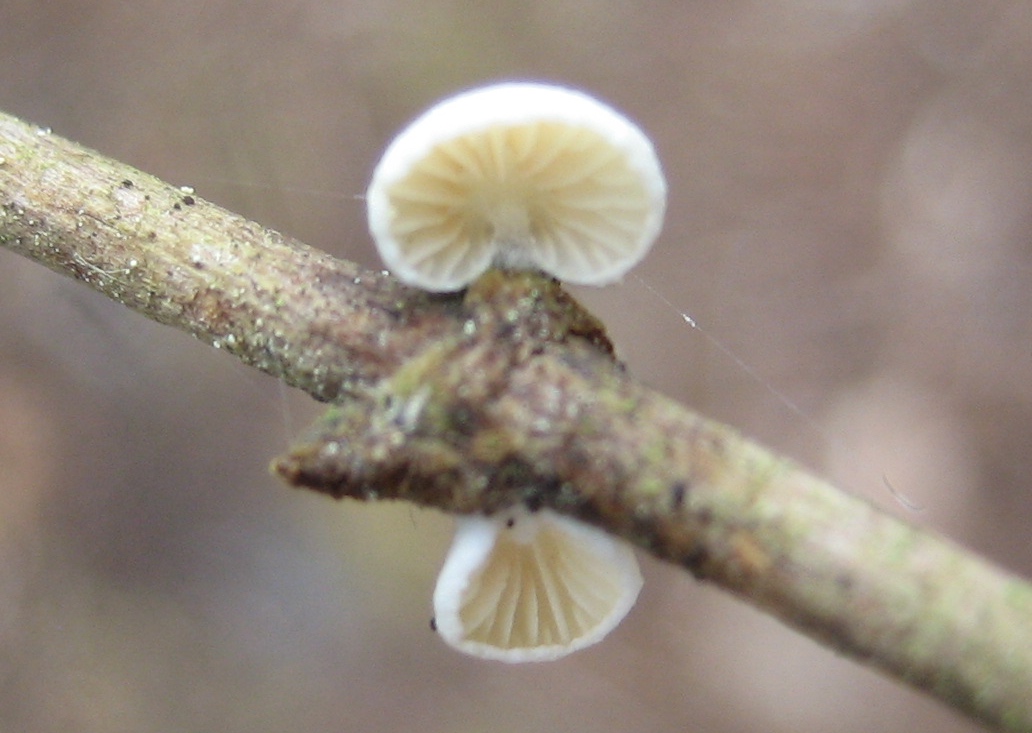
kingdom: Fungi
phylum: Basidiomycota
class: Agaricomycetes
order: Agaricales
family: Crepidotaceae
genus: Crepidotus
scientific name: Crepidotus
